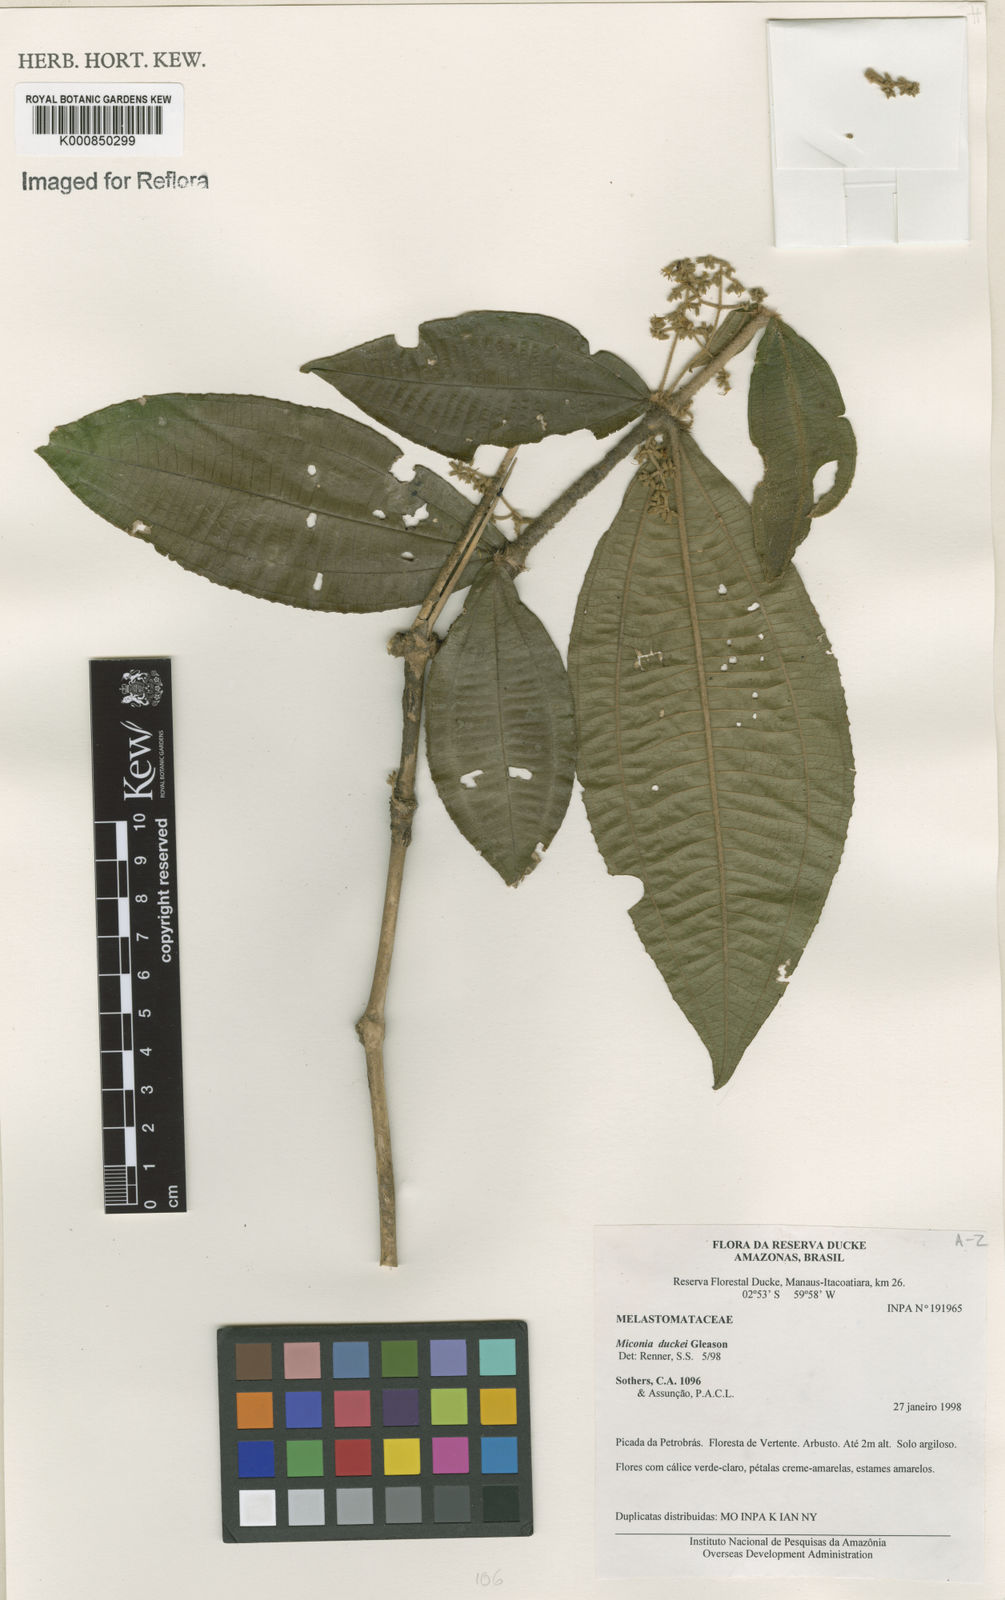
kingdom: Plantae
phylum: Tracheophyta
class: Magnoliopsida
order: Myrtales
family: Melastomataceae
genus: Miconia
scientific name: Miconia duckei
